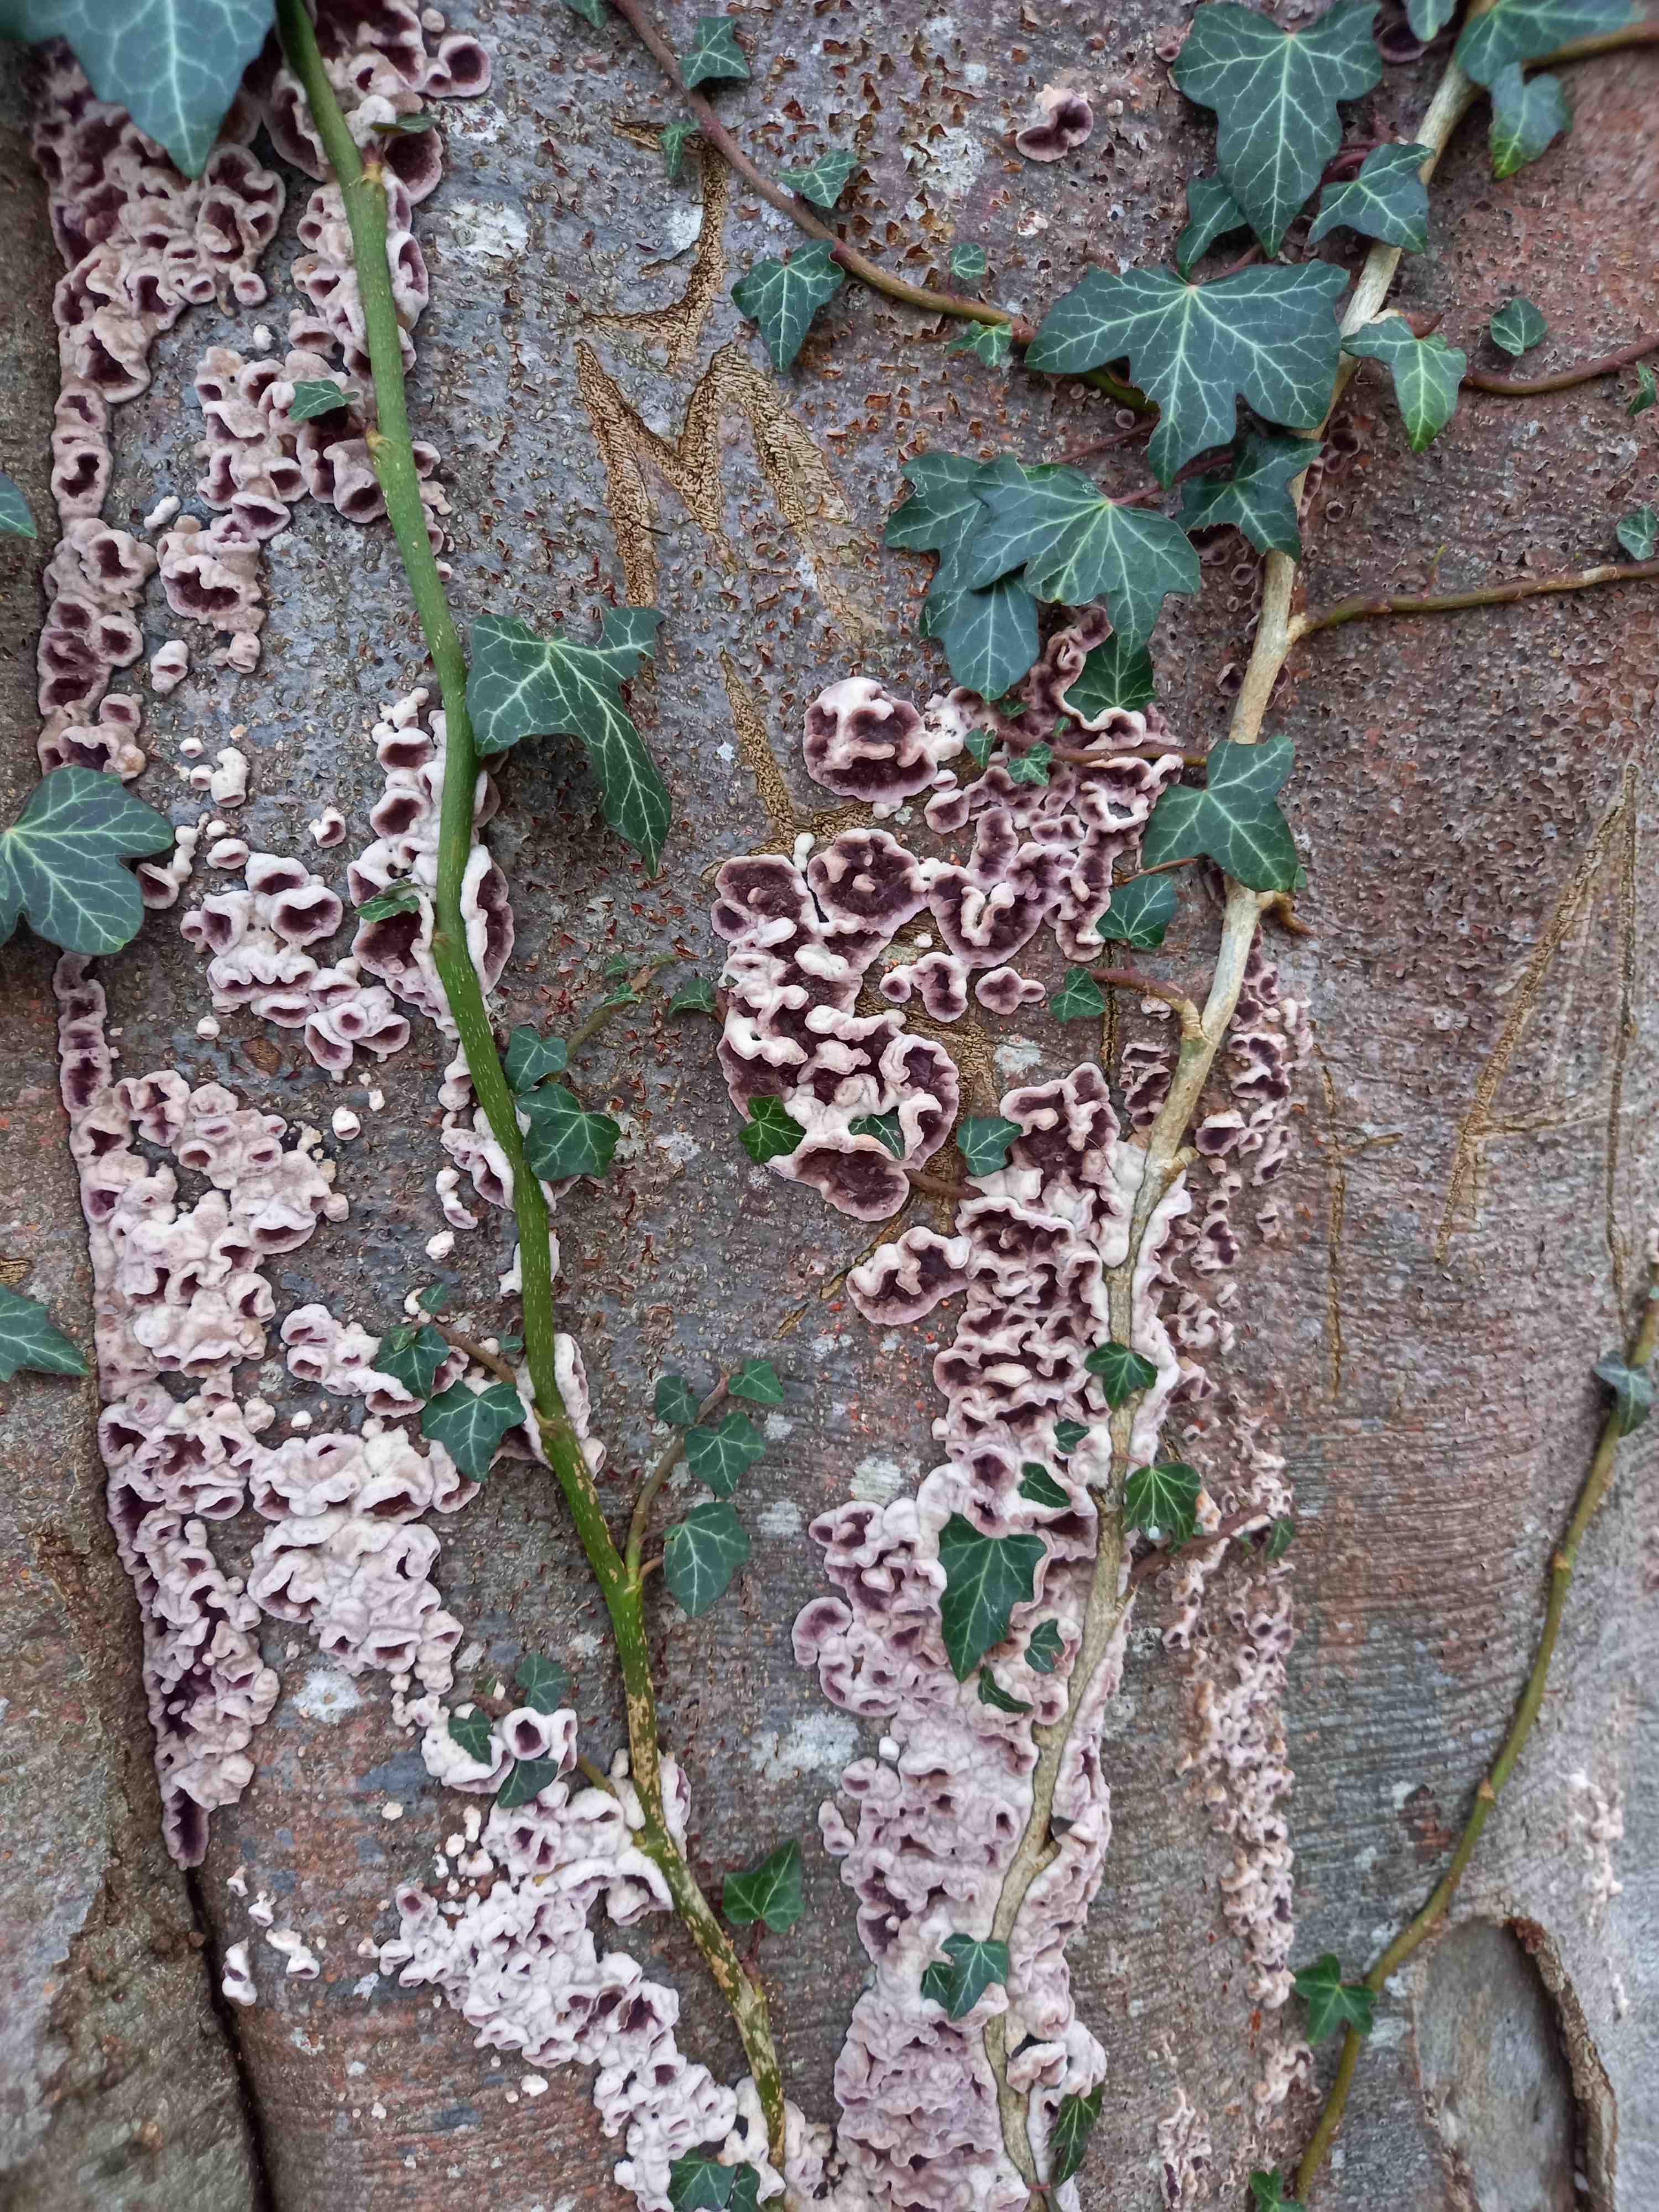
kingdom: Fungi
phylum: Basidiomycota
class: Agaricomycetes
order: Agaricales
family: Cyphellaceae
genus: Chondrostereum
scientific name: Chondrostereum purpureum
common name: purpurlædersvamp
